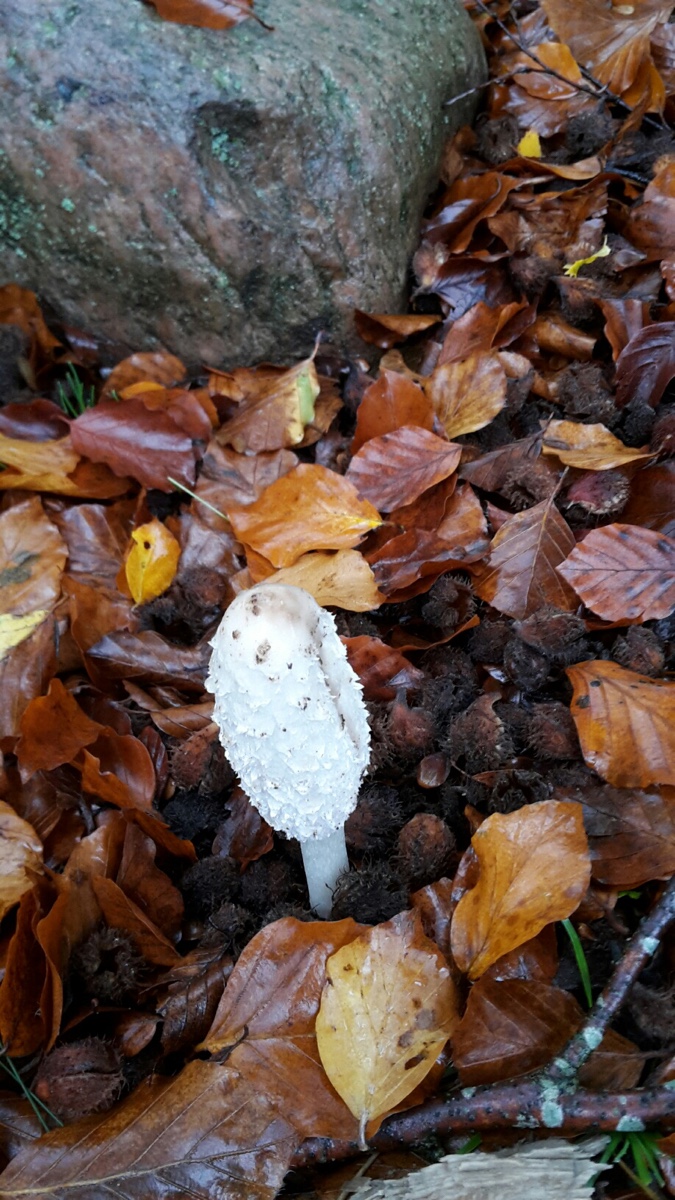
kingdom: Fungi
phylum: Basidiomycota
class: Agaricomycetes
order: Agaricales
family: Agaricaceae
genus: Coprinus
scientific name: Coprinus comatus
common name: stor parykhat
